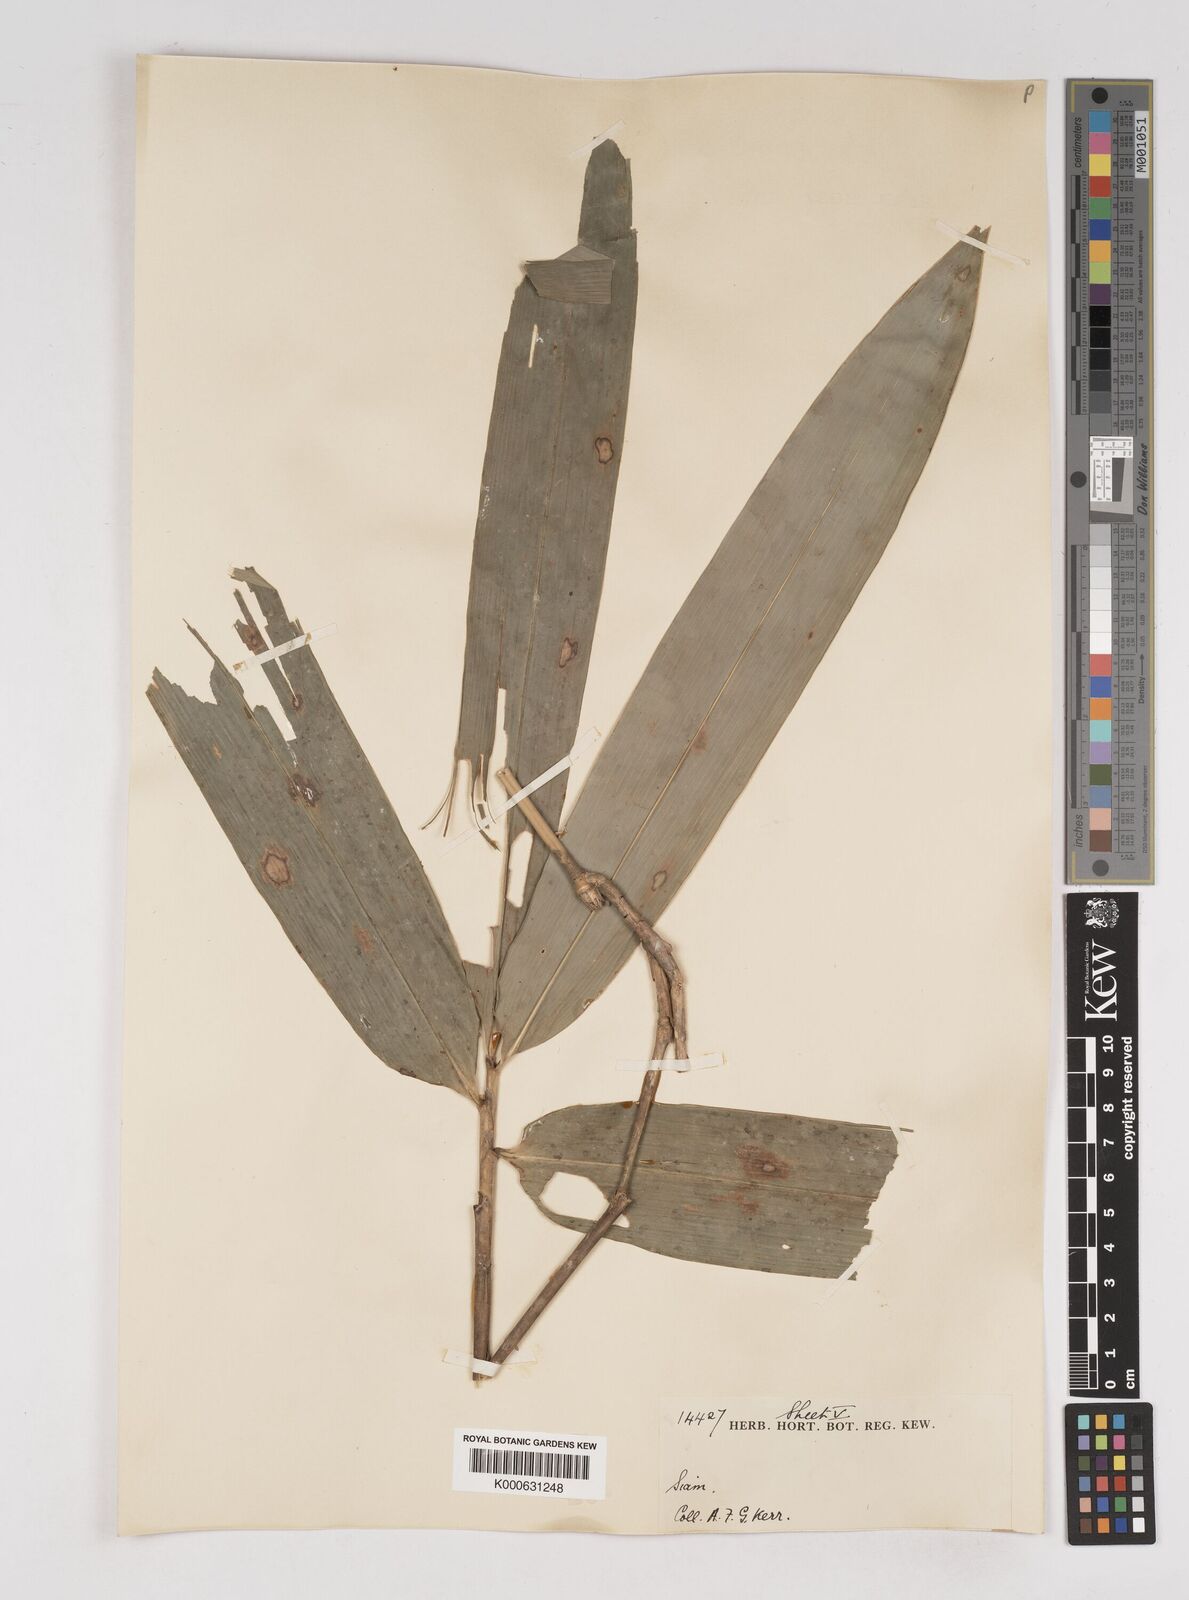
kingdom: Plantae
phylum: Tracheophyta
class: Liliopsida
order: Poales
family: Poaceae
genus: Gigantochloa
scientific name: Gigantochloa
